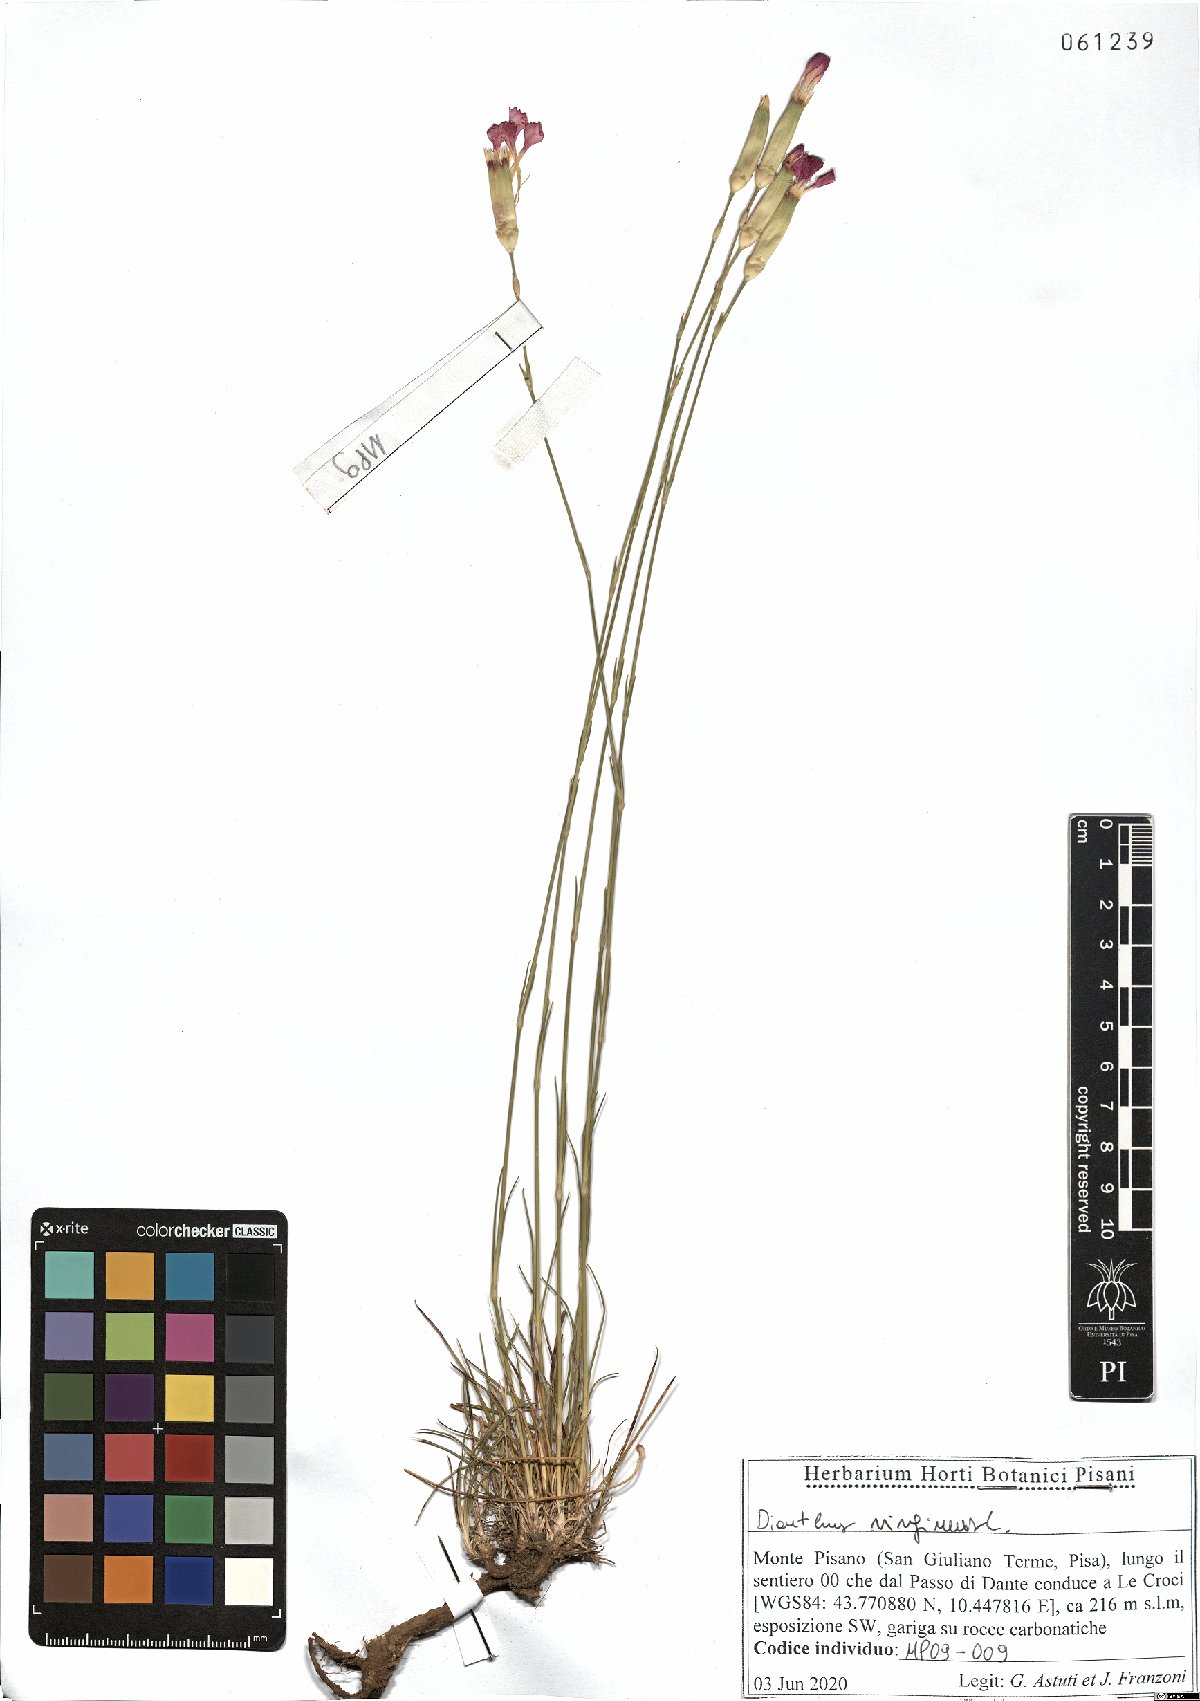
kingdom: Plantae
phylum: Tracheophyta
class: Magnoliopsida
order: Caryophyllales
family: Caryophyllaceae
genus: Dianthus
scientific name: Dianthus virgineus
